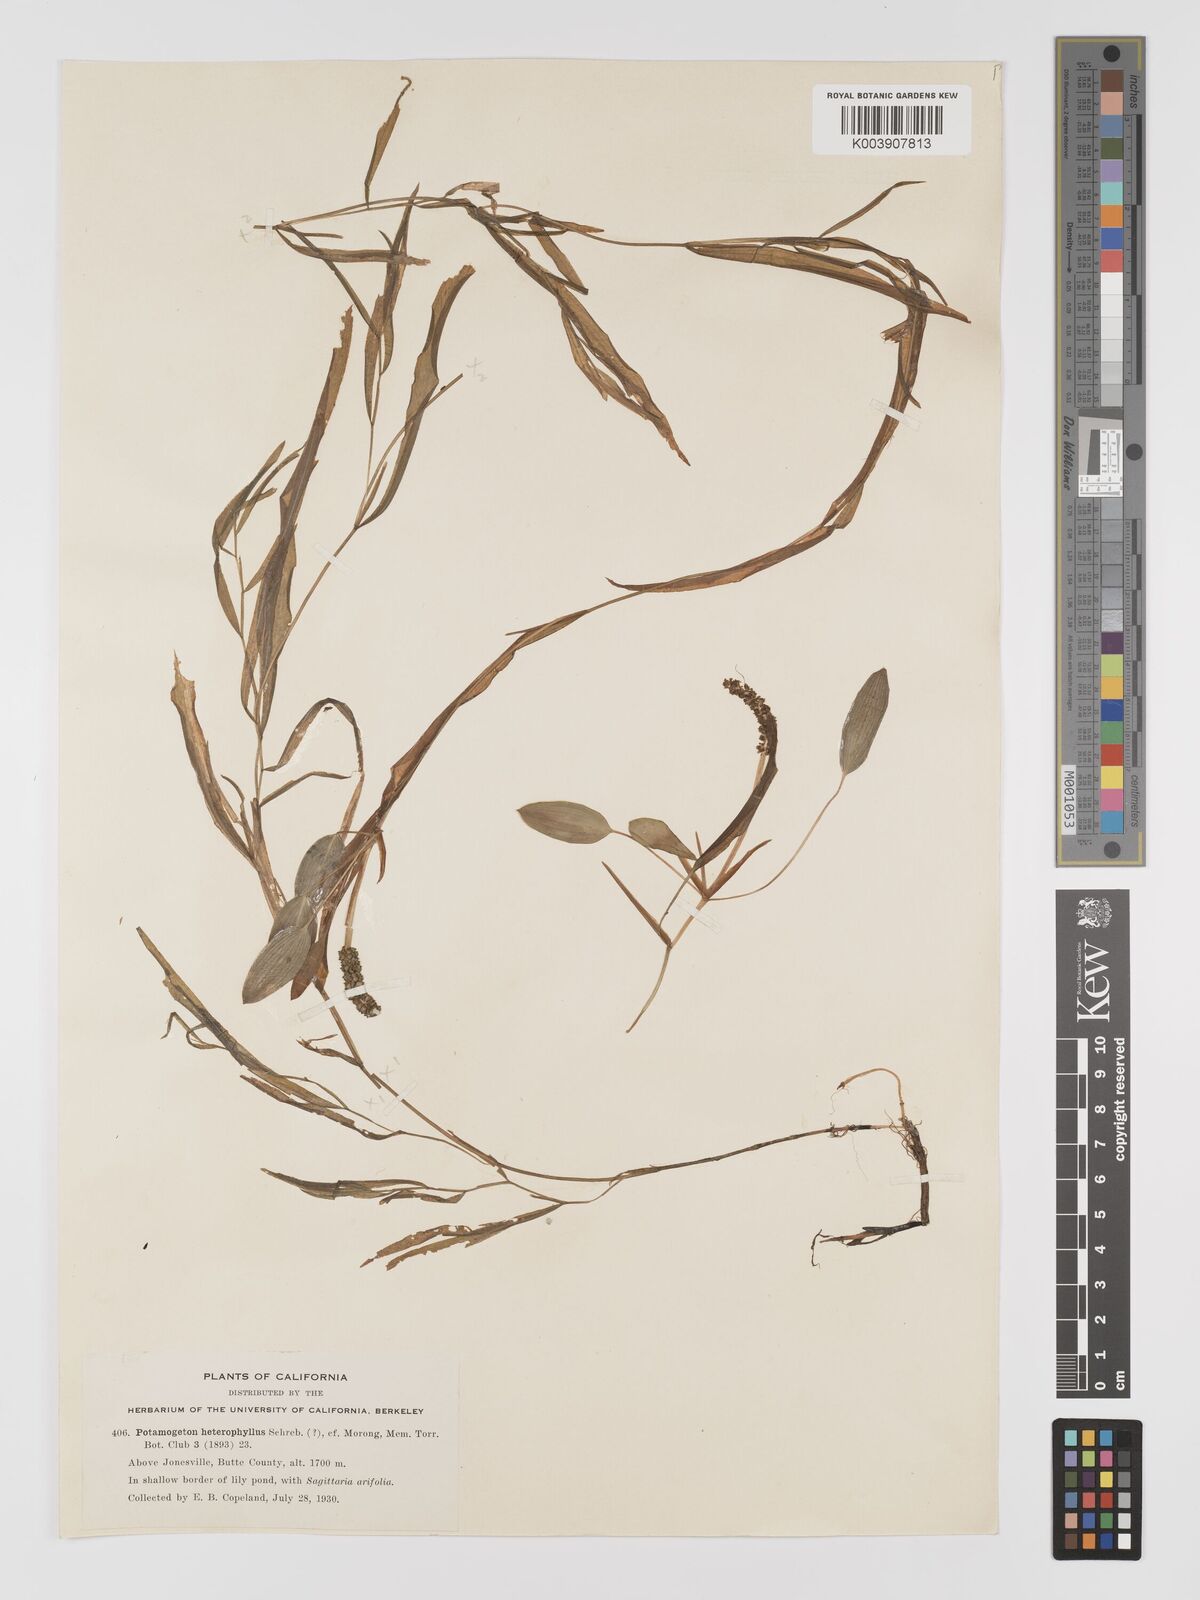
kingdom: Plantae
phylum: Tracheophyta
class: Liliopsida
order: Alismatales
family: Potamogetonaceae
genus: Potamogeton
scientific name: Potamogeton gramineus
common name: Various-leaved pondweed
